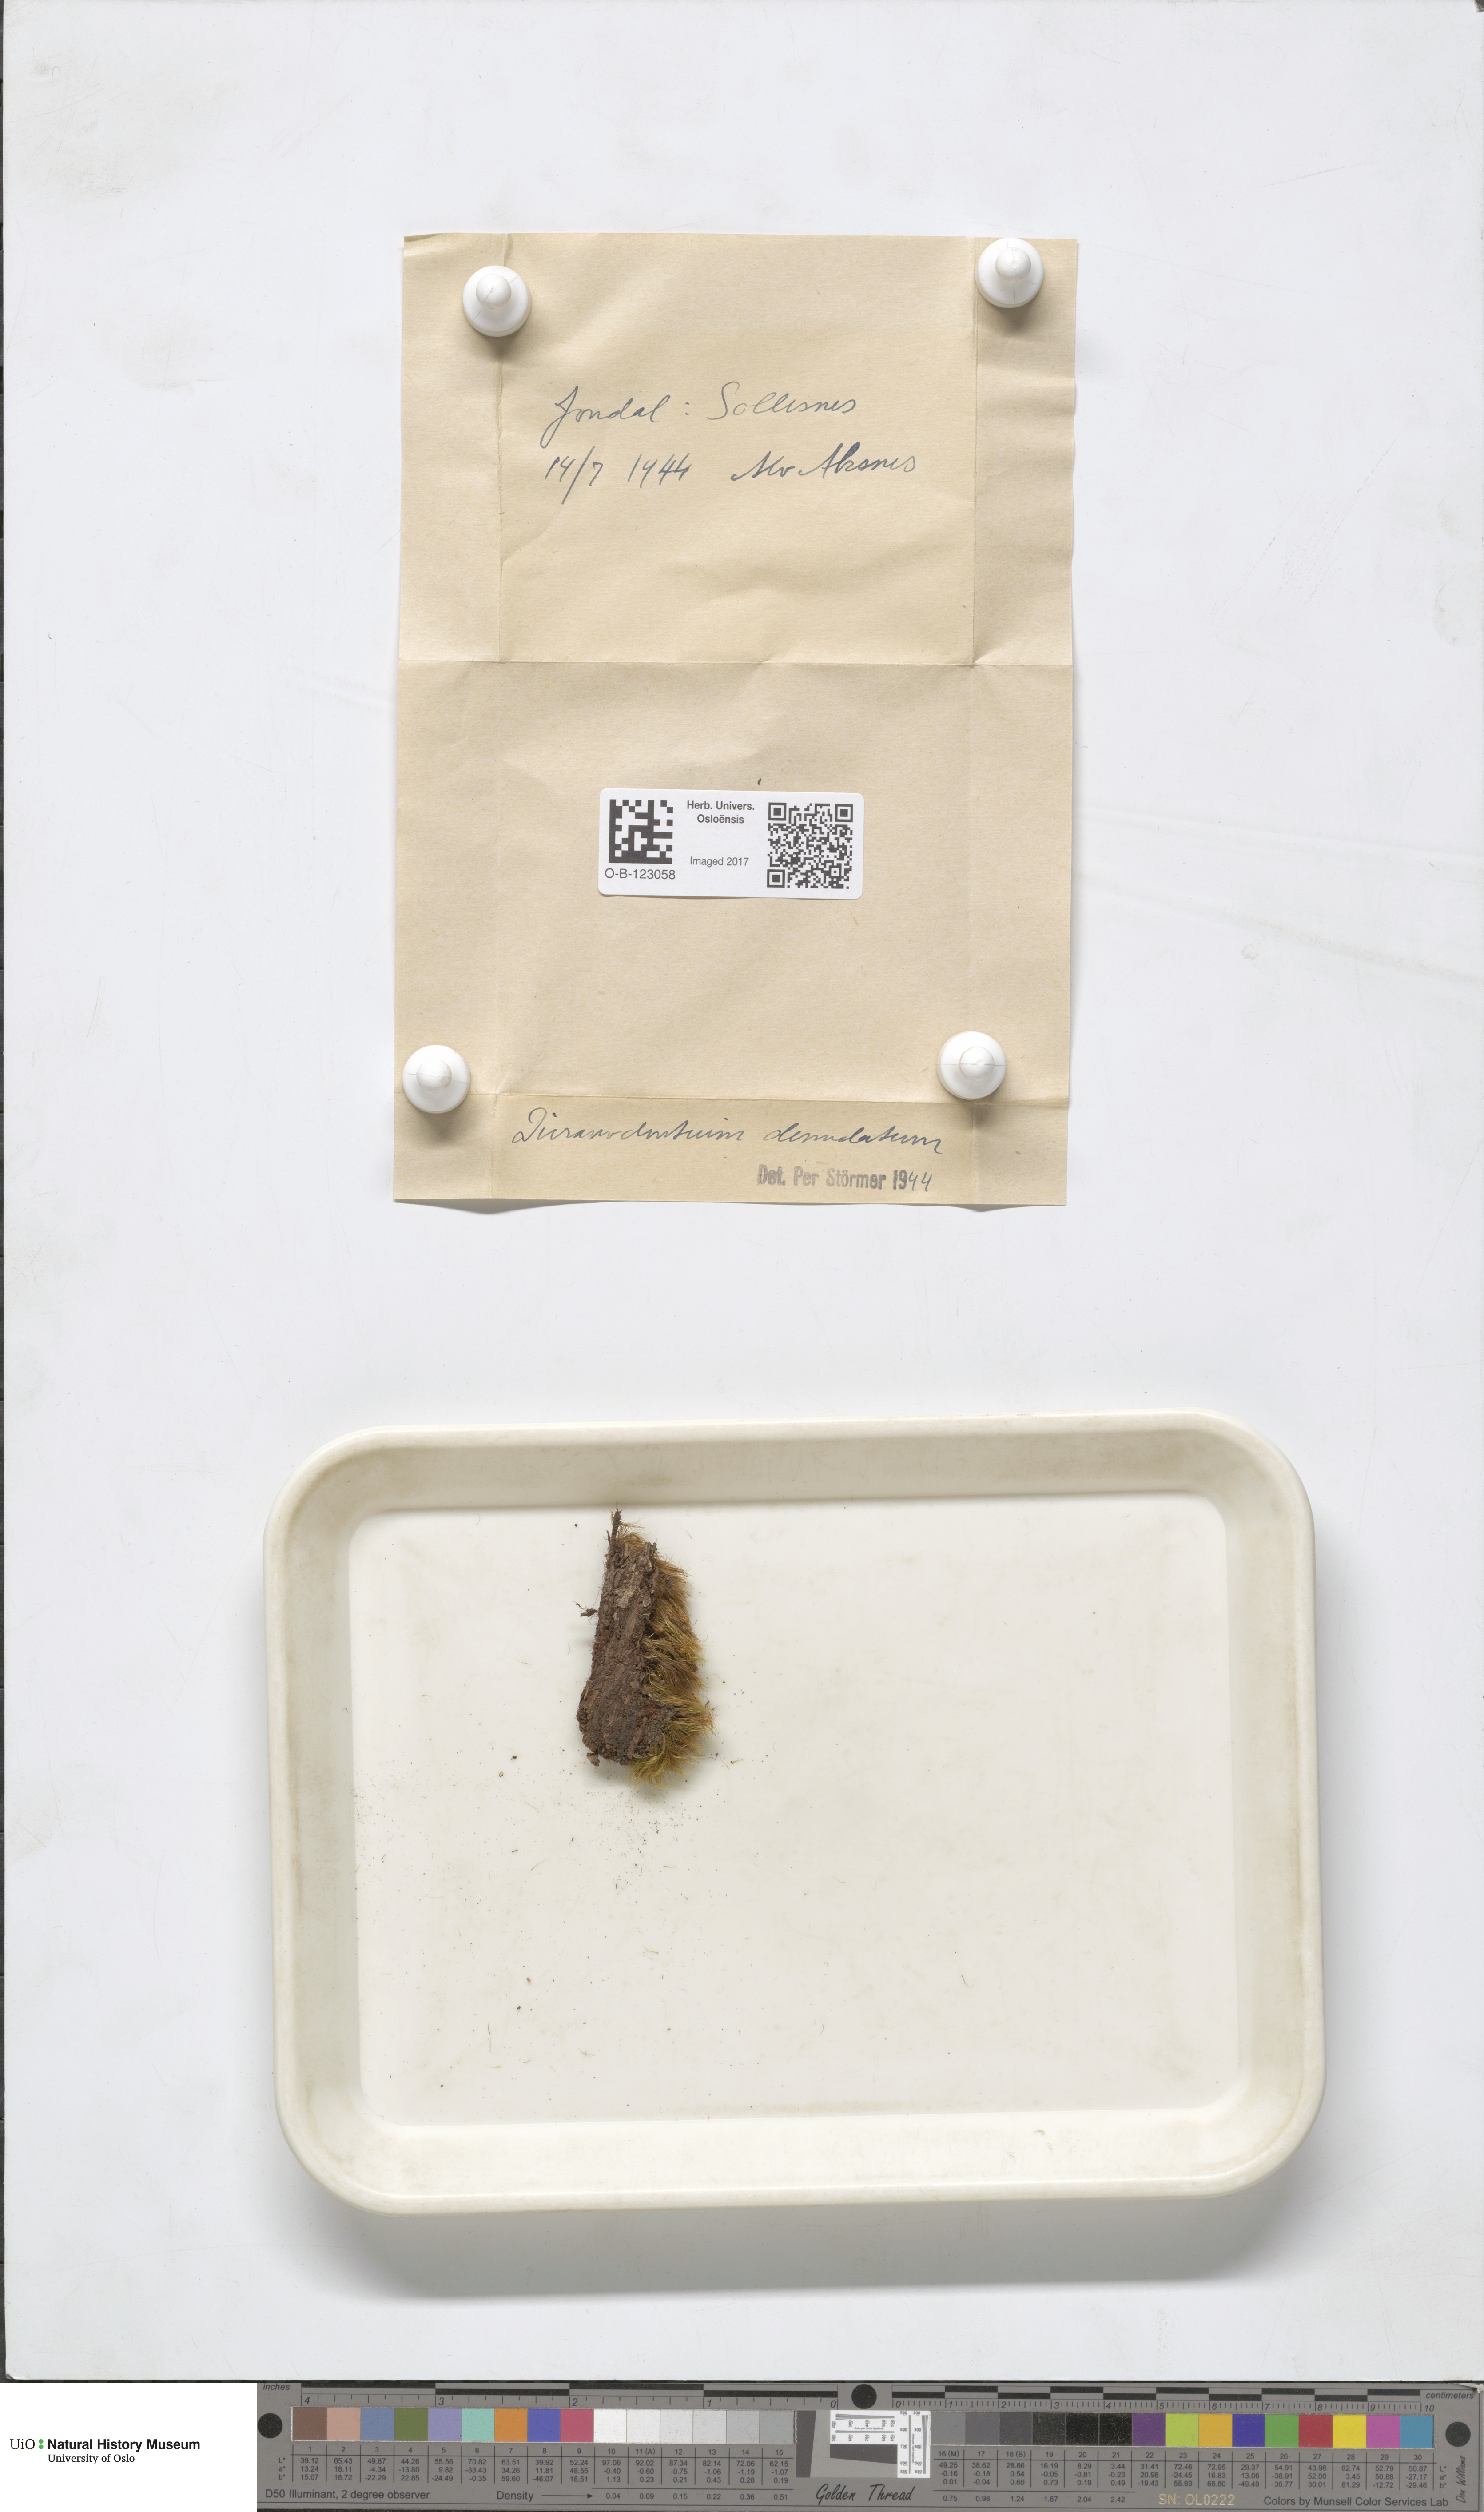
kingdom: Plantae
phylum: Bryophyta
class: Bryopsida
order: Dicranales
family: Leucobryaceae
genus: Dicranodontium
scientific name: Dicranodontium denudatum
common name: Beaked bow moss
